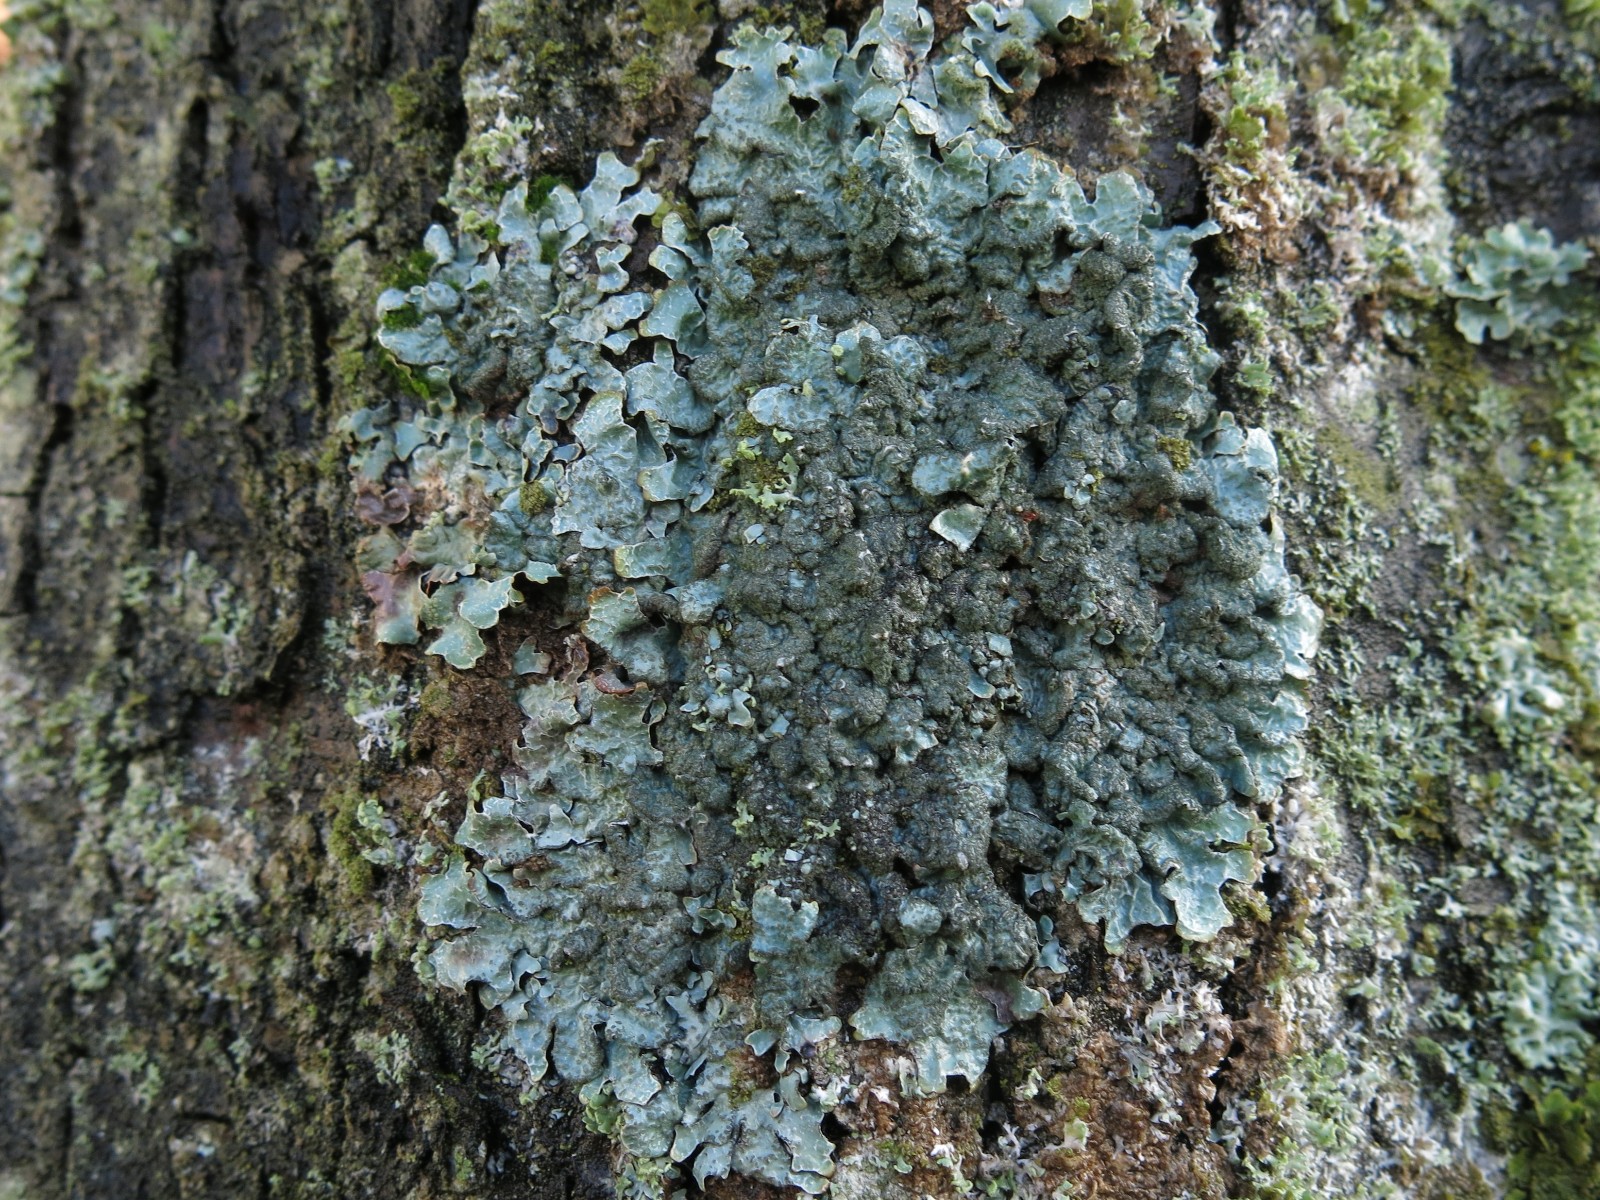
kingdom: Fungi
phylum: Ascomycota
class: Lecanoromycetes
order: Lecanorales
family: Parmeliaceae
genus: Parmelia
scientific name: Parmelia sulcata
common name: rynket skållav
